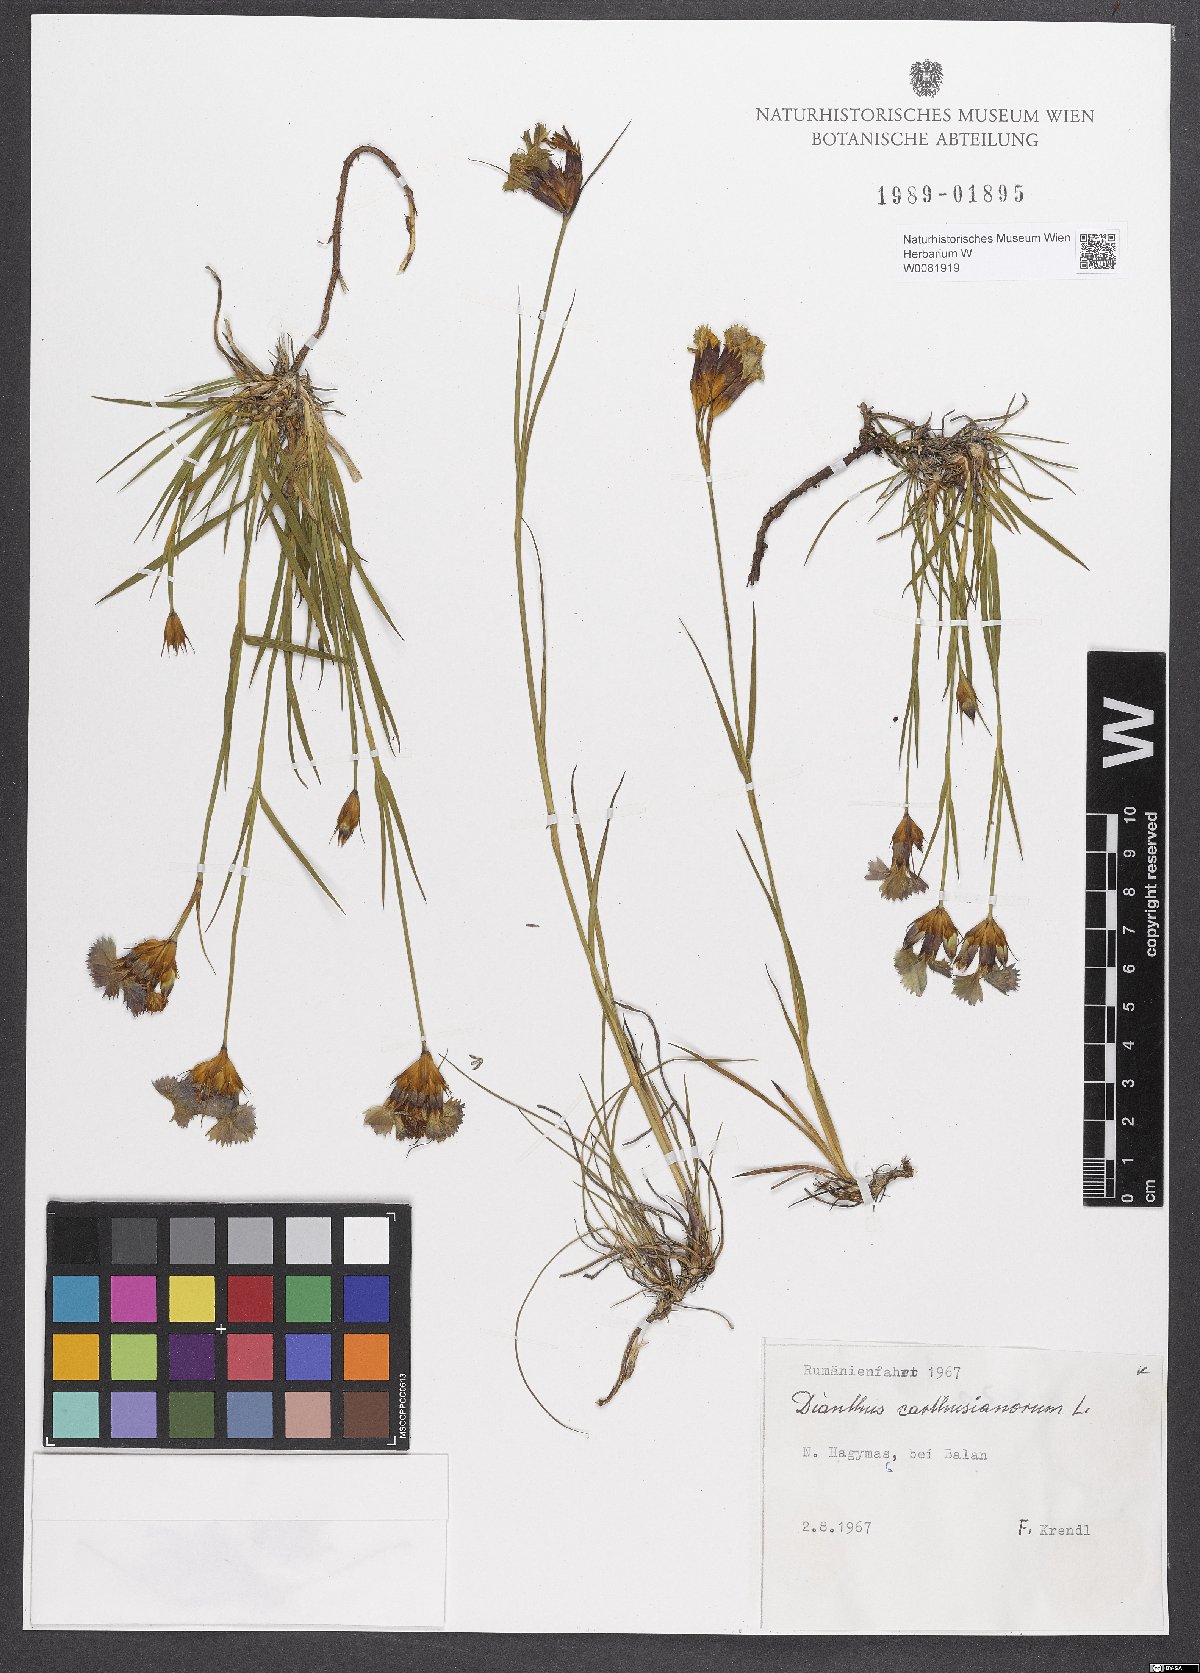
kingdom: Plantae
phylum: Tracheophyta
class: Magnoliopsida
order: Caryophyllales
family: Caryophyllaceae
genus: Dianthus
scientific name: Dianthus carthusianorum
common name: Carthusian pink
